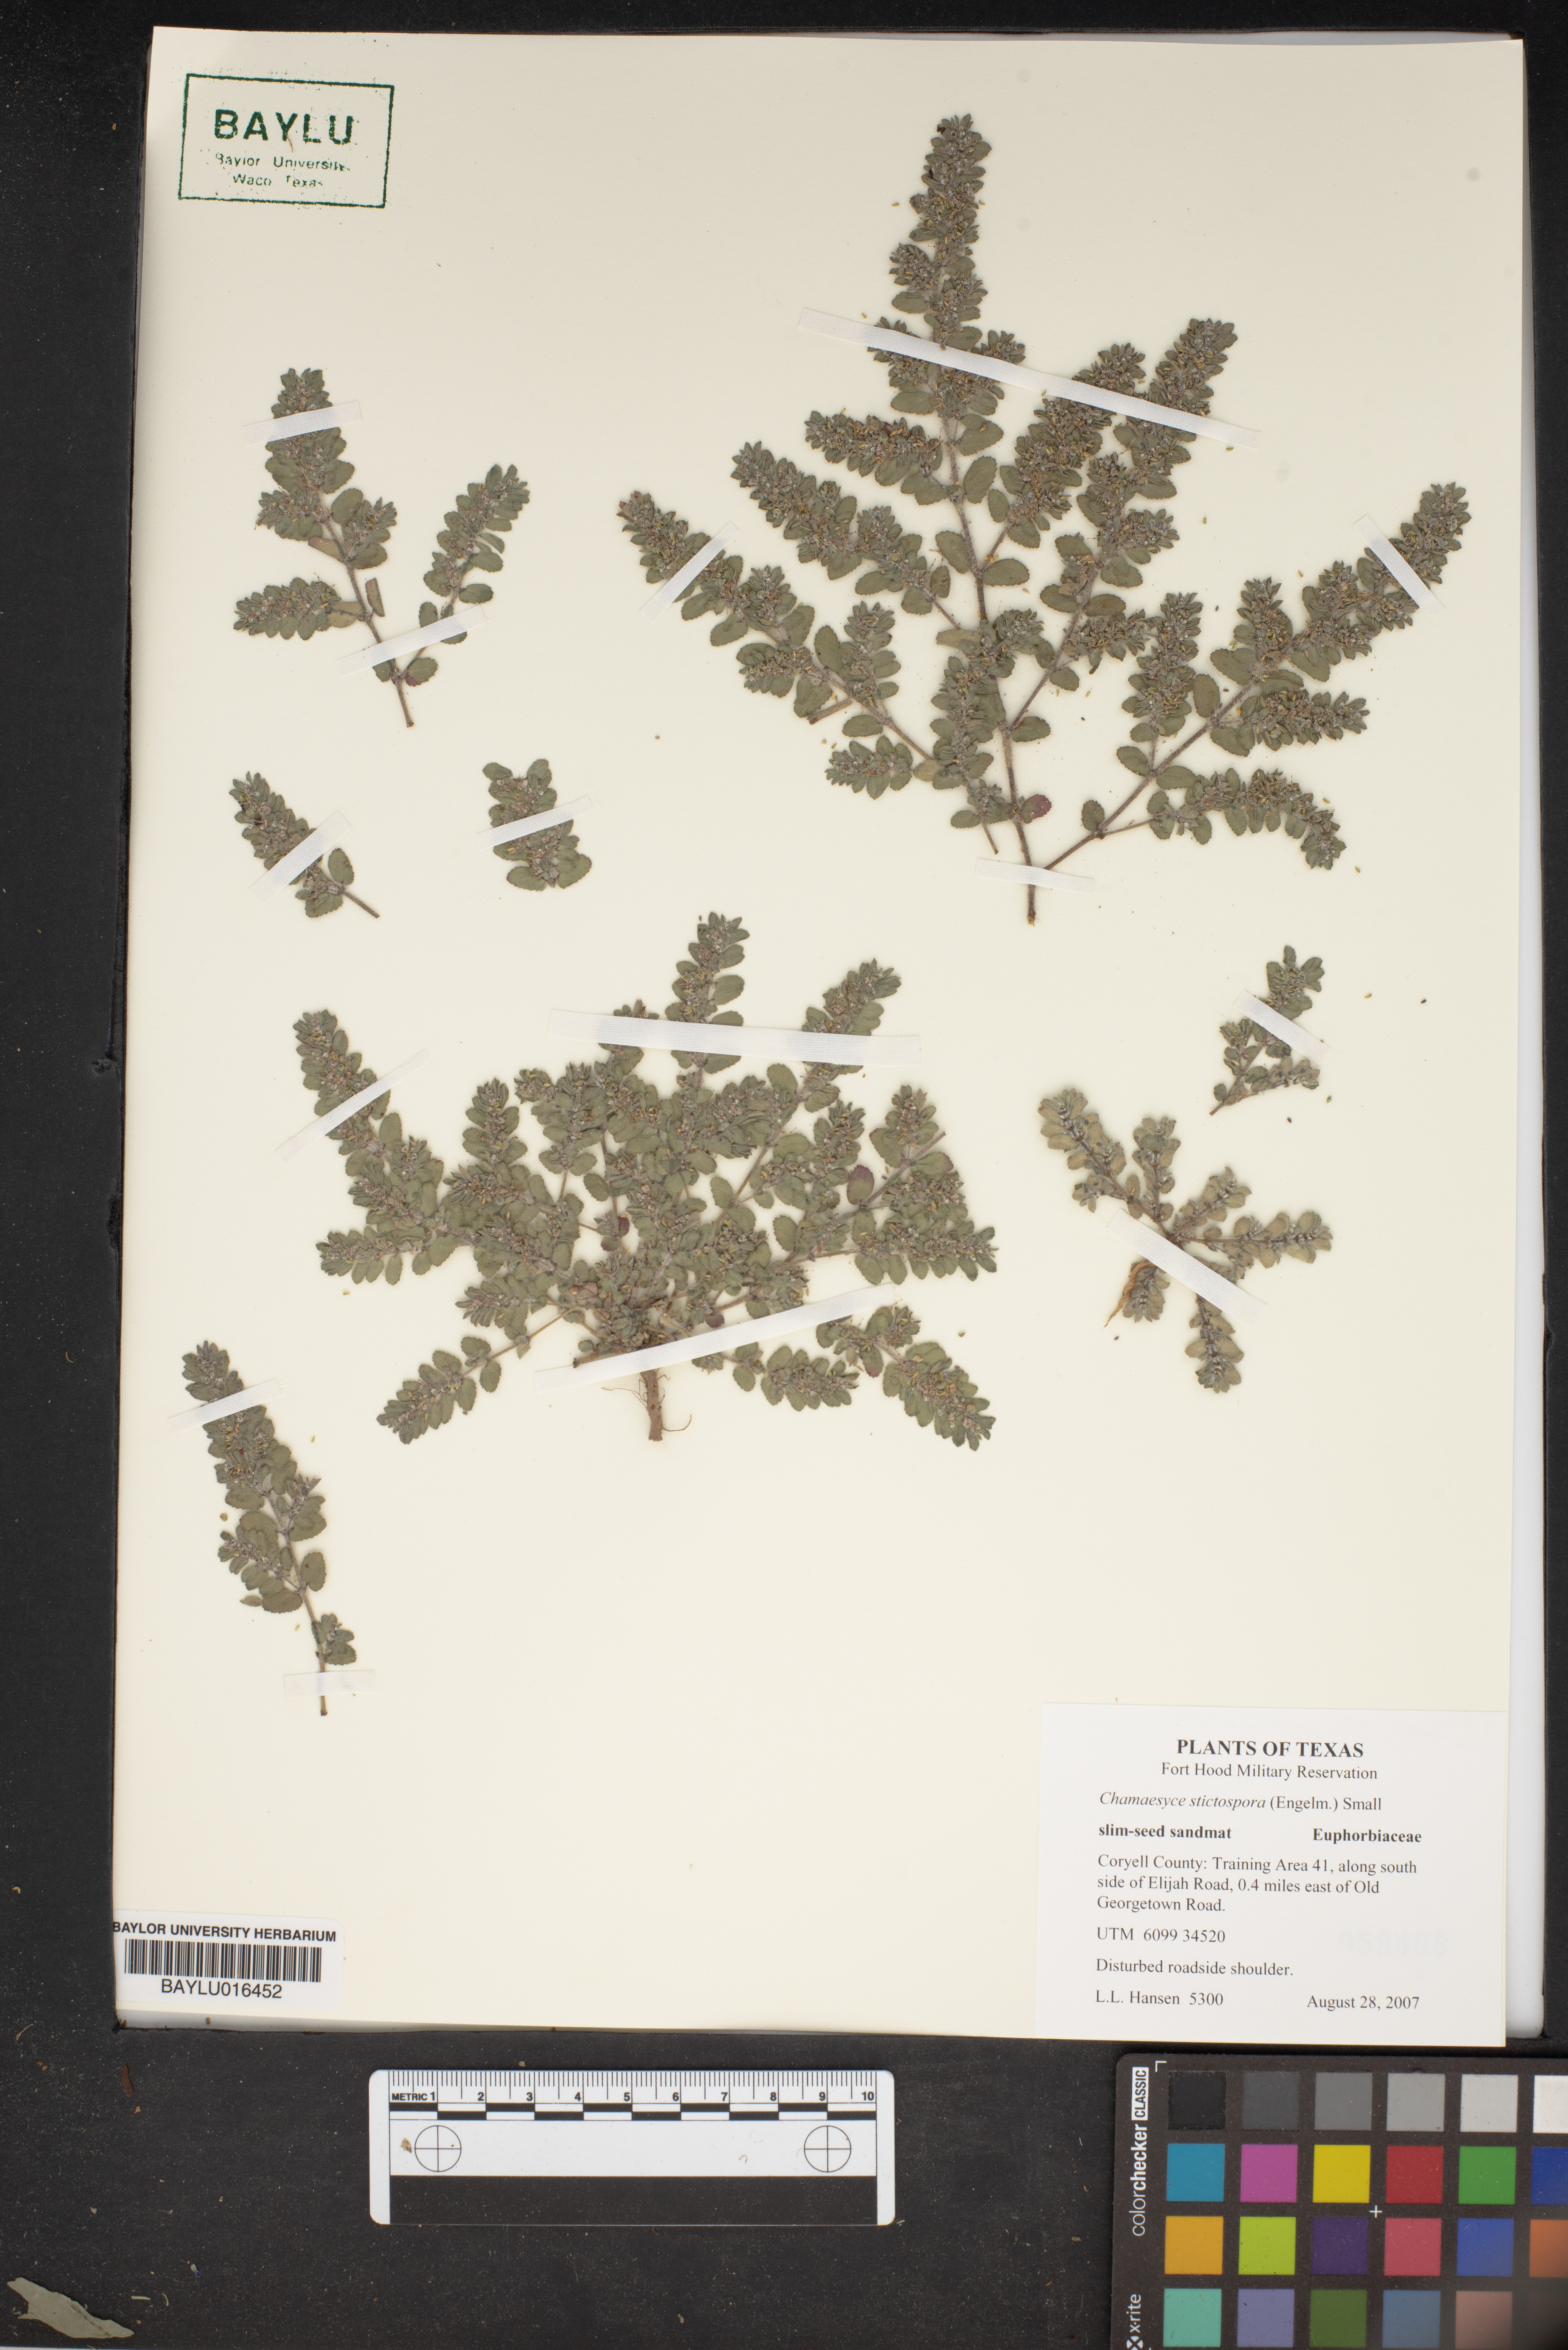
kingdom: Plantae
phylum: Tracheophyta
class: Magnoliopsida
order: Malpighiales
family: Euphorbiaceae
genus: Euphorbia
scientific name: Euphorbia stictospora
